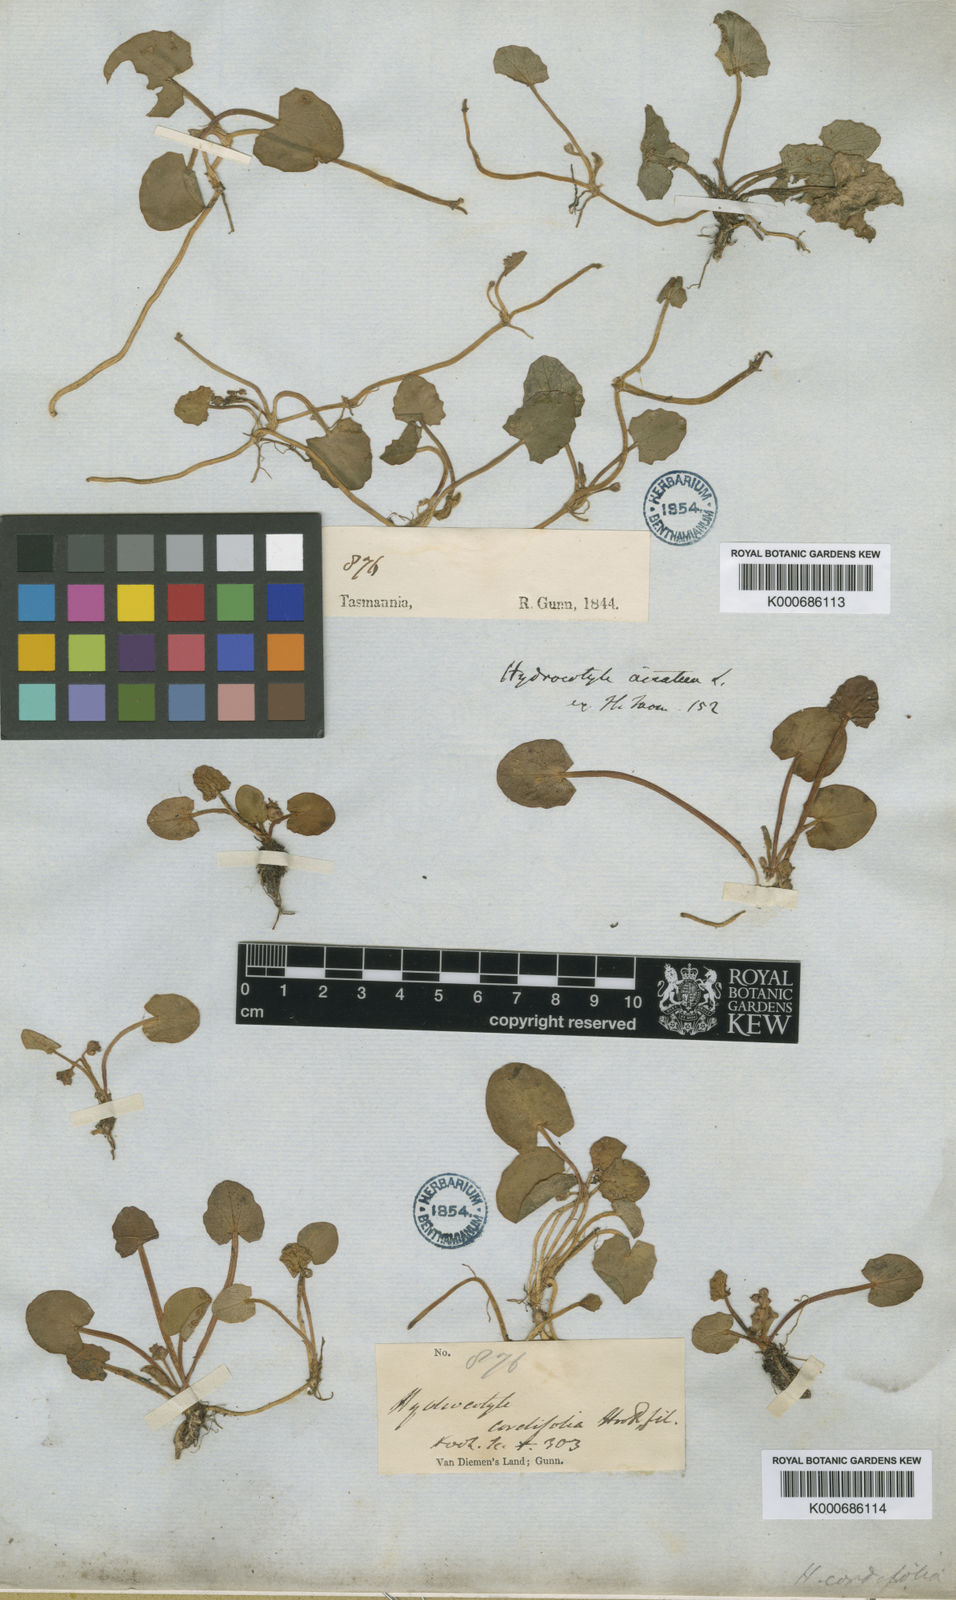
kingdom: Plantae
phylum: Tracheophyta
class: Magnoliopsida
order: Apiales
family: Apiaceae
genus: Centella
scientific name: Centella cordifolia
